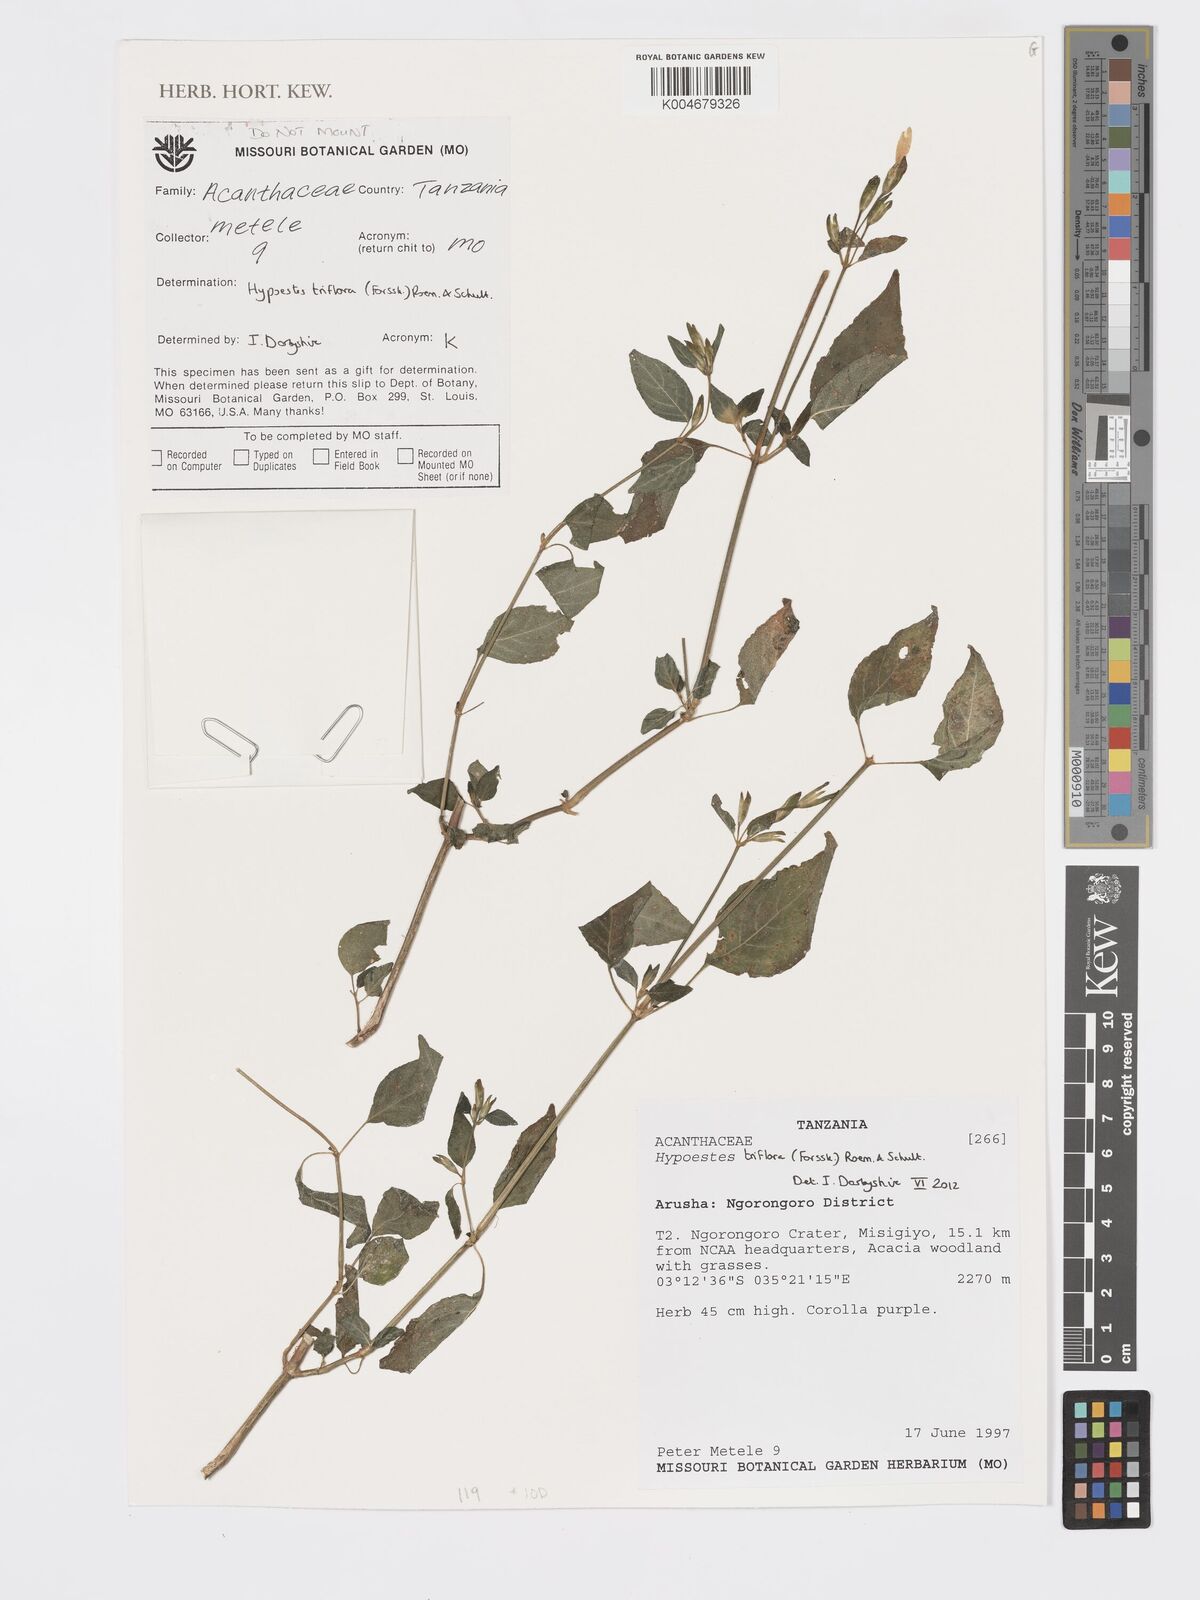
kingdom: Plantae
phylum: Tracheophyta
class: Magnoliopsida
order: Lamiales
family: Acanthaceae
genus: Hypoestes
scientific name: Hypoestes triflora
